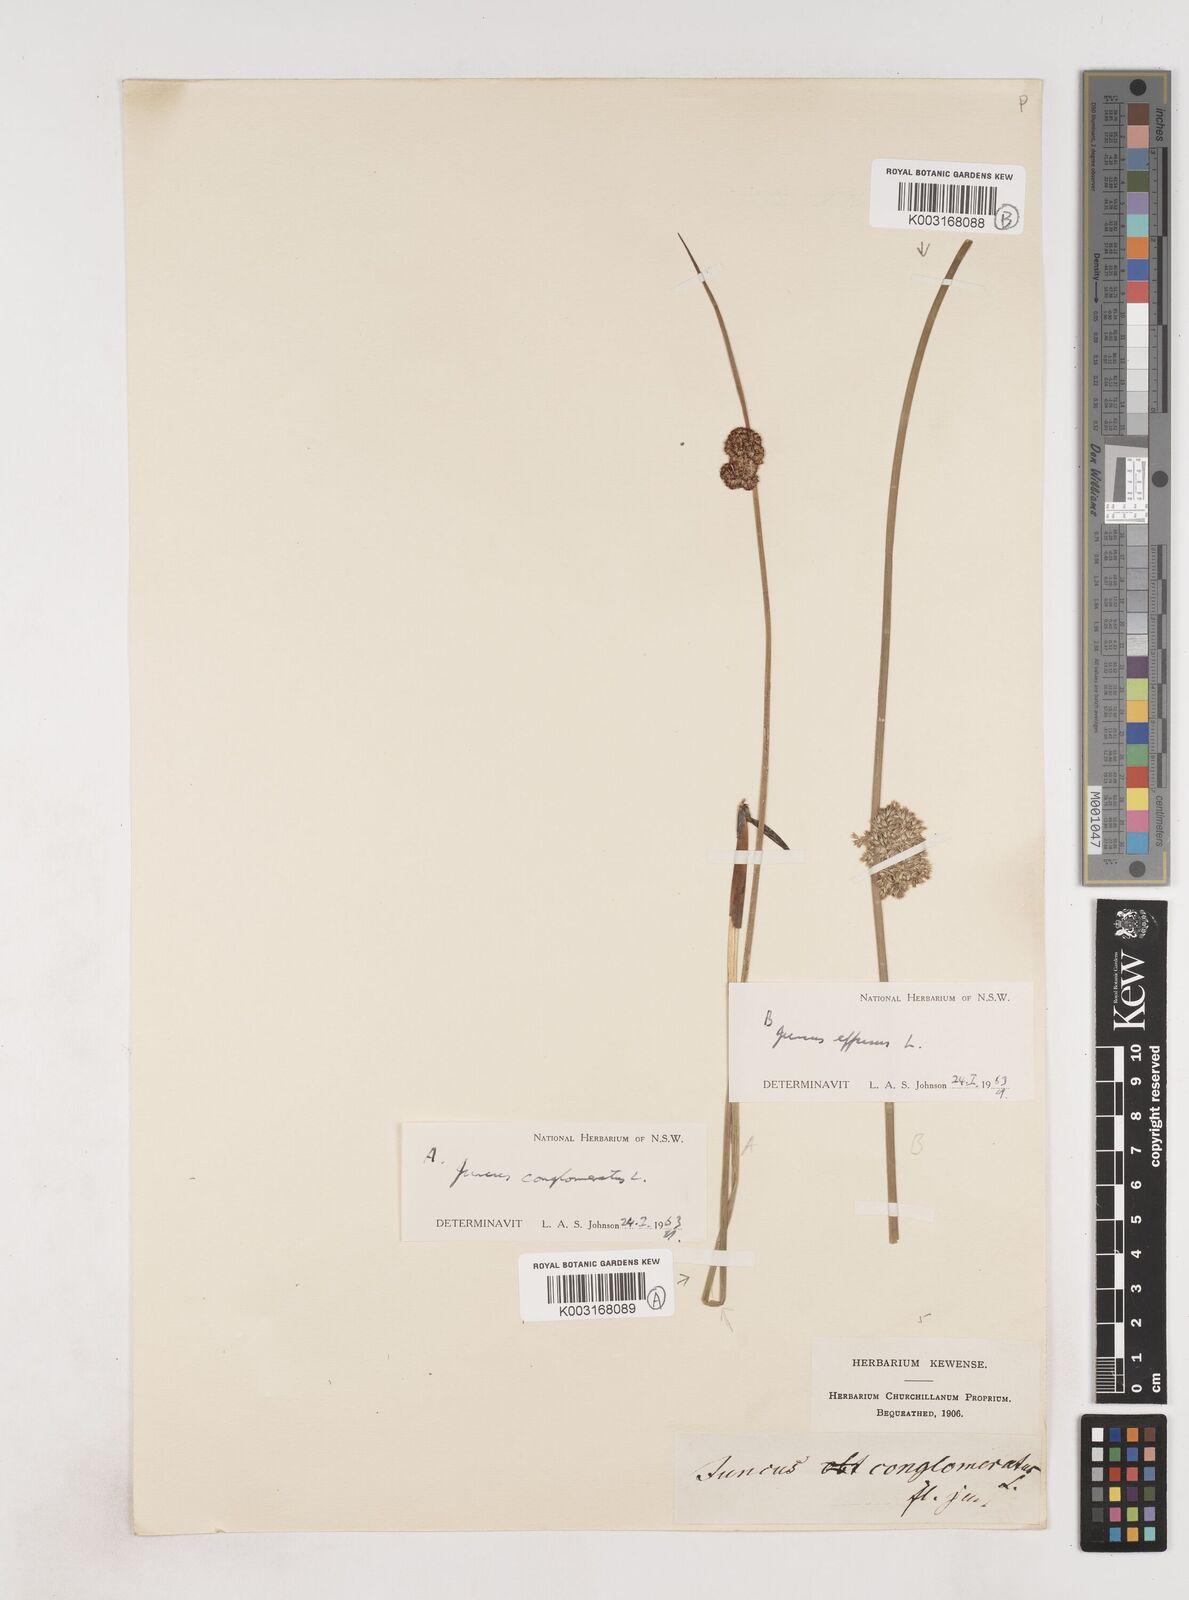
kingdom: Plantae
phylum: Tracheophyta
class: Liliopsida
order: Poales
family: Juncaceae
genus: Juncus
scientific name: Juncus conglomeratus
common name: Compact rush
